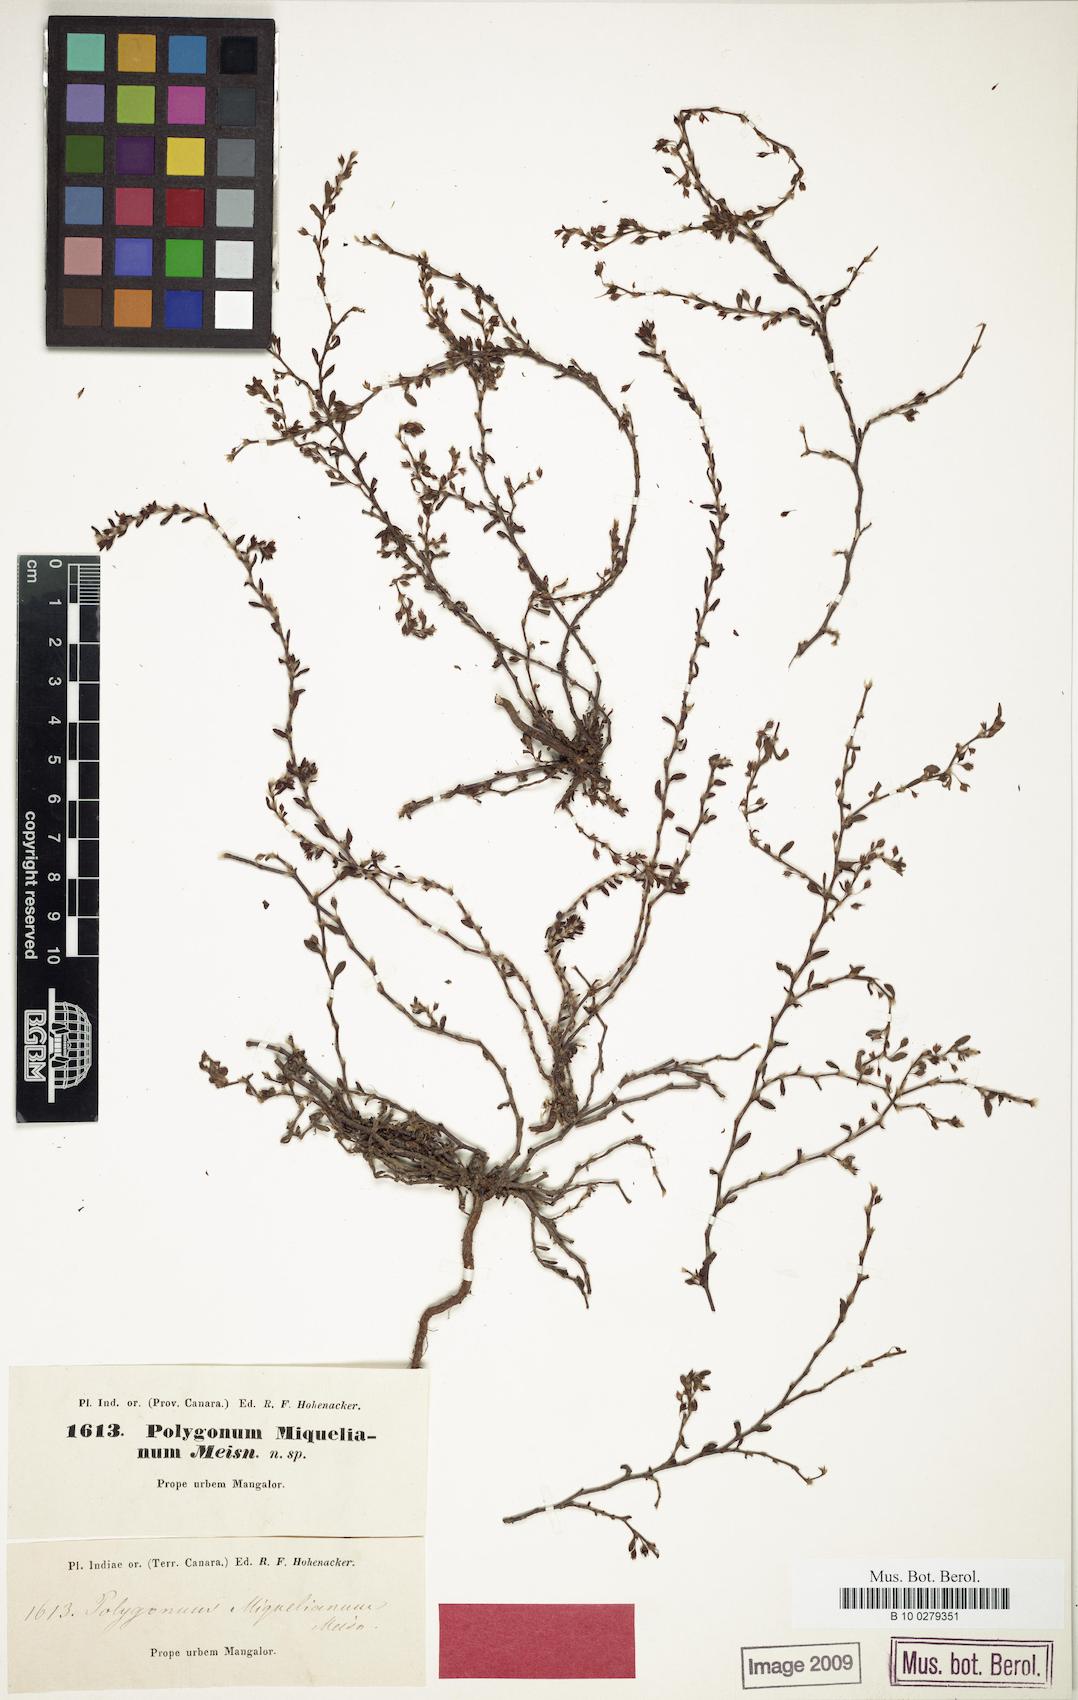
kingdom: Plantae
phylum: Tracheophyta
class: Magnoliopsida
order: Caryophyllales
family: Polygonaceae
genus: Polygonum
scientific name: Polygonum plebeium
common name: Common knotweed
